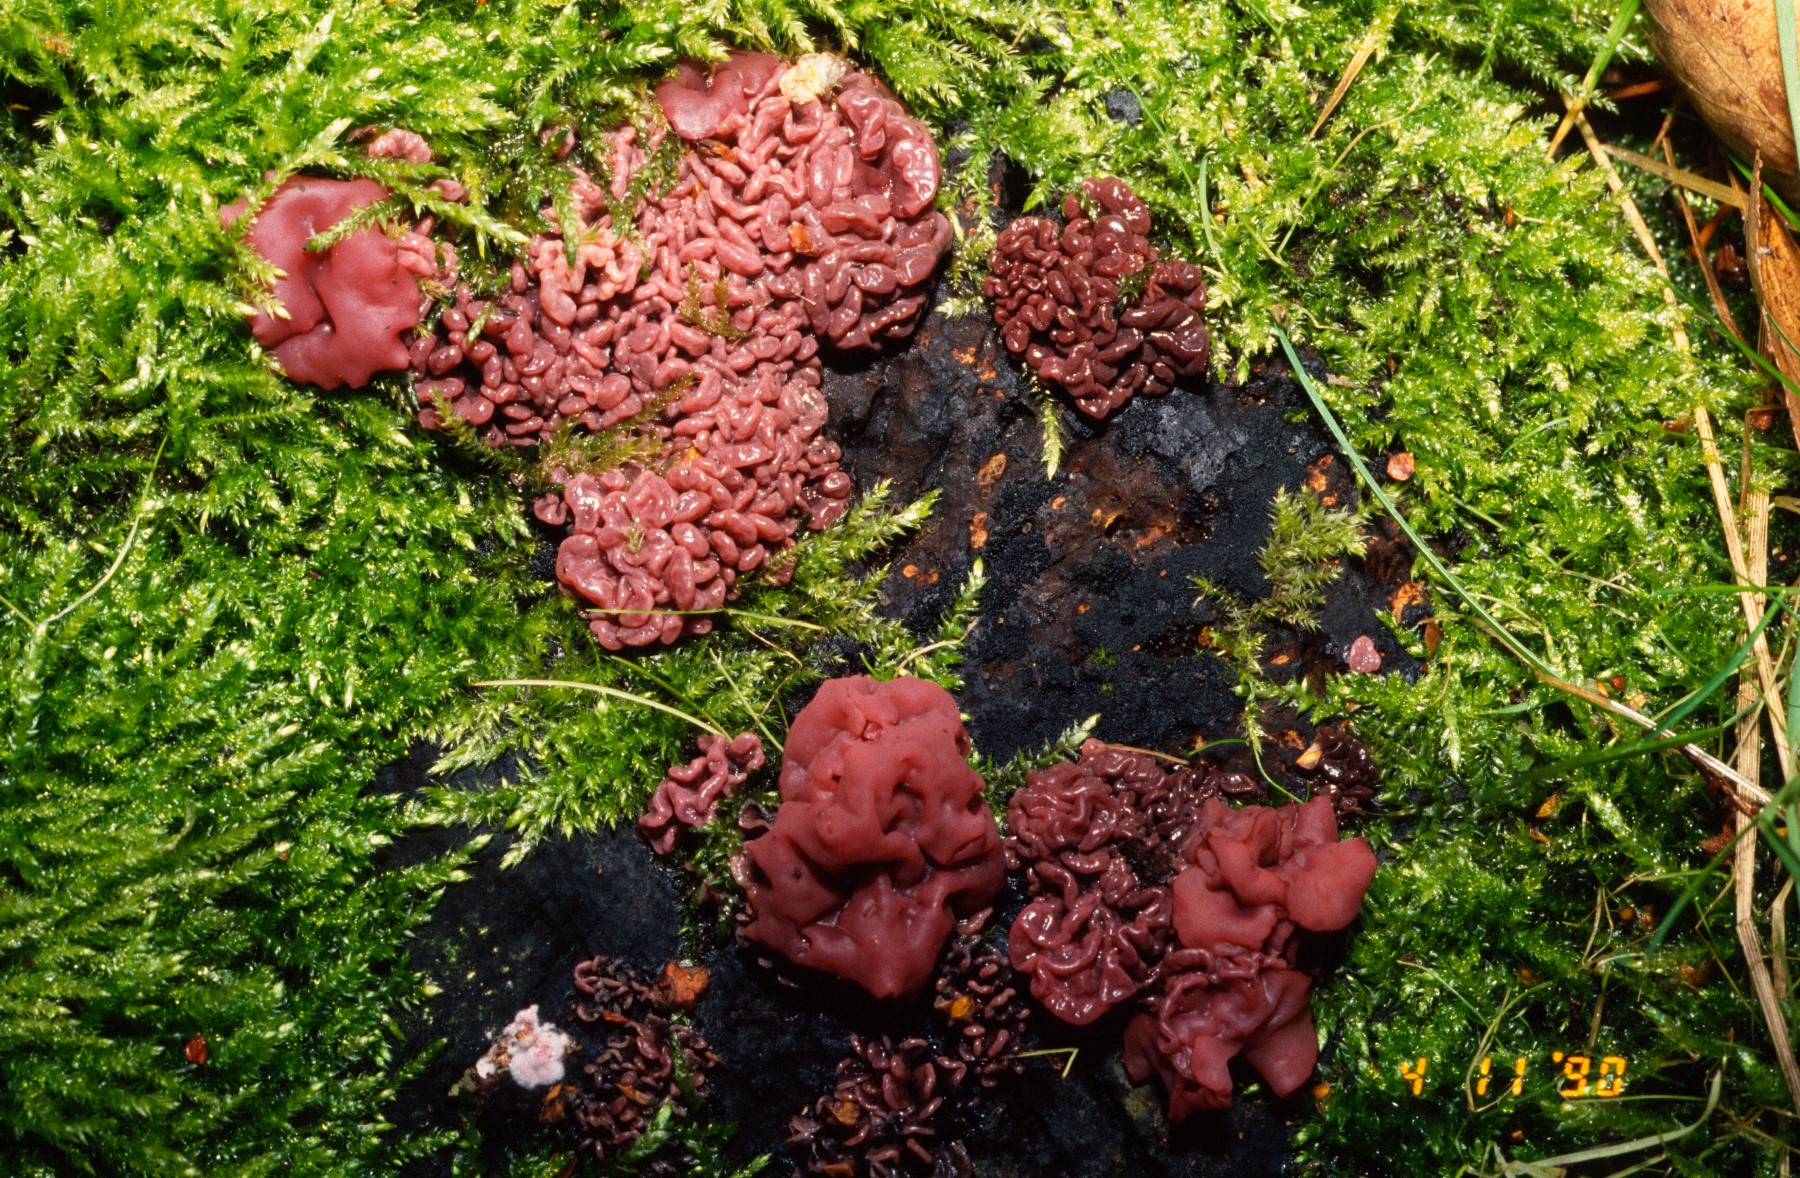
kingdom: Fungi
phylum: Ascomycota
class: Leotiomycetes
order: Helotiales
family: Gelatinodiscaceae
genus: Ascocoryne
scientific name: Ascocoryne sarcoides
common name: rødlilla sejskive
